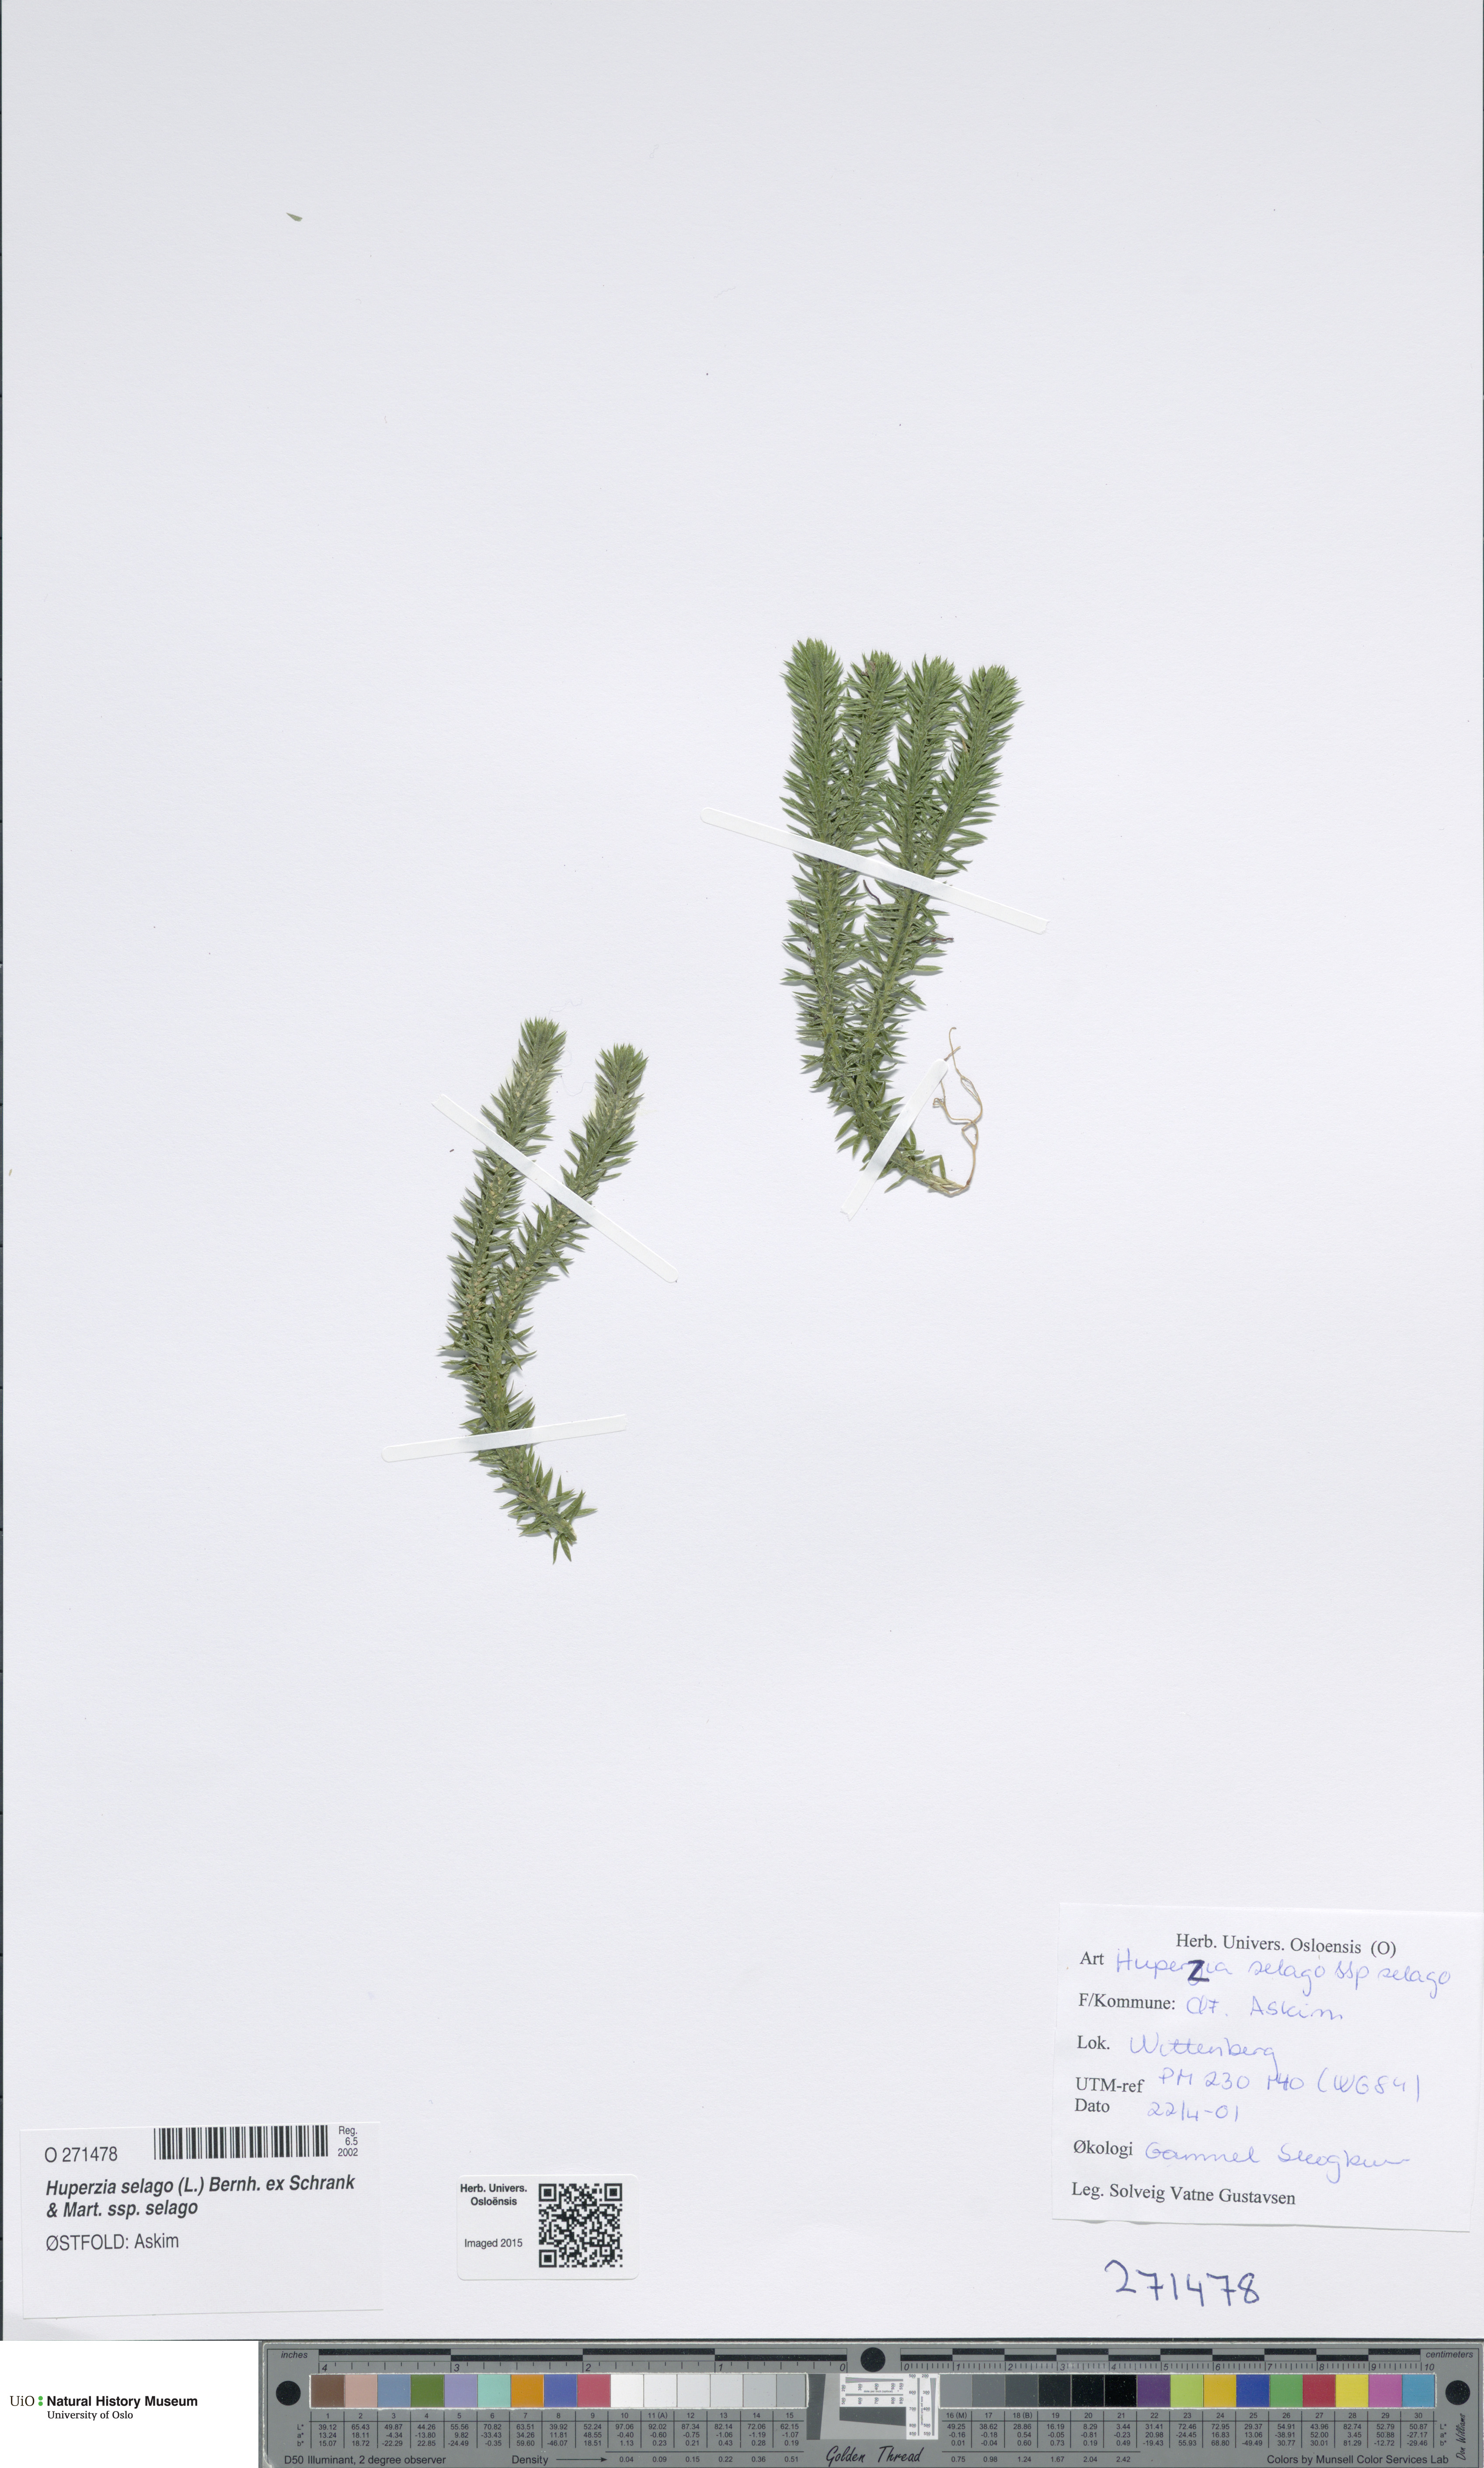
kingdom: Plantae
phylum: Tracheophyta
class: Lycopodiopsida
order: Lycopodiales
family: Lycopodiaceae
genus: Huperzia
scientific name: Huperzia selago
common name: Northern firmoss
